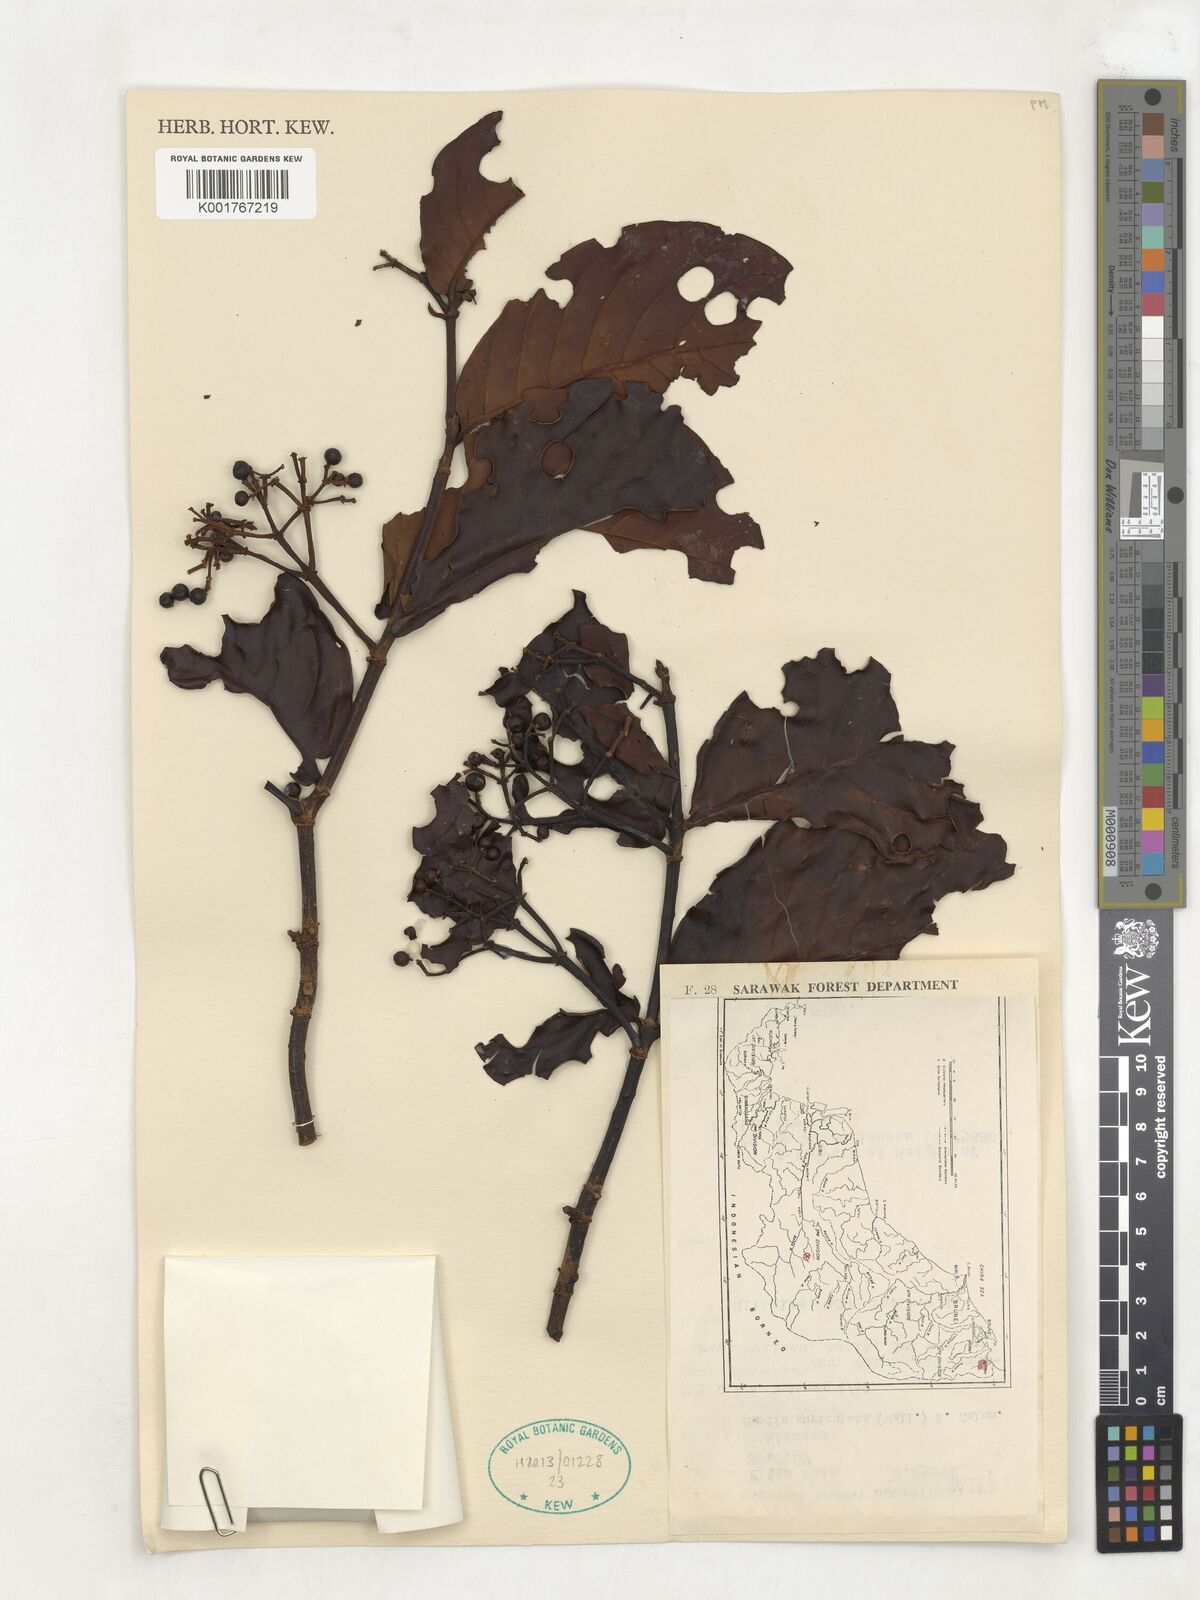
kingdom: Plantae
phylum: Tracheophyta
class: Magnoliopsida
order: Gentianales
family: Rubiaceae
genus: Aidia
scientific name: Aidia auriculata
